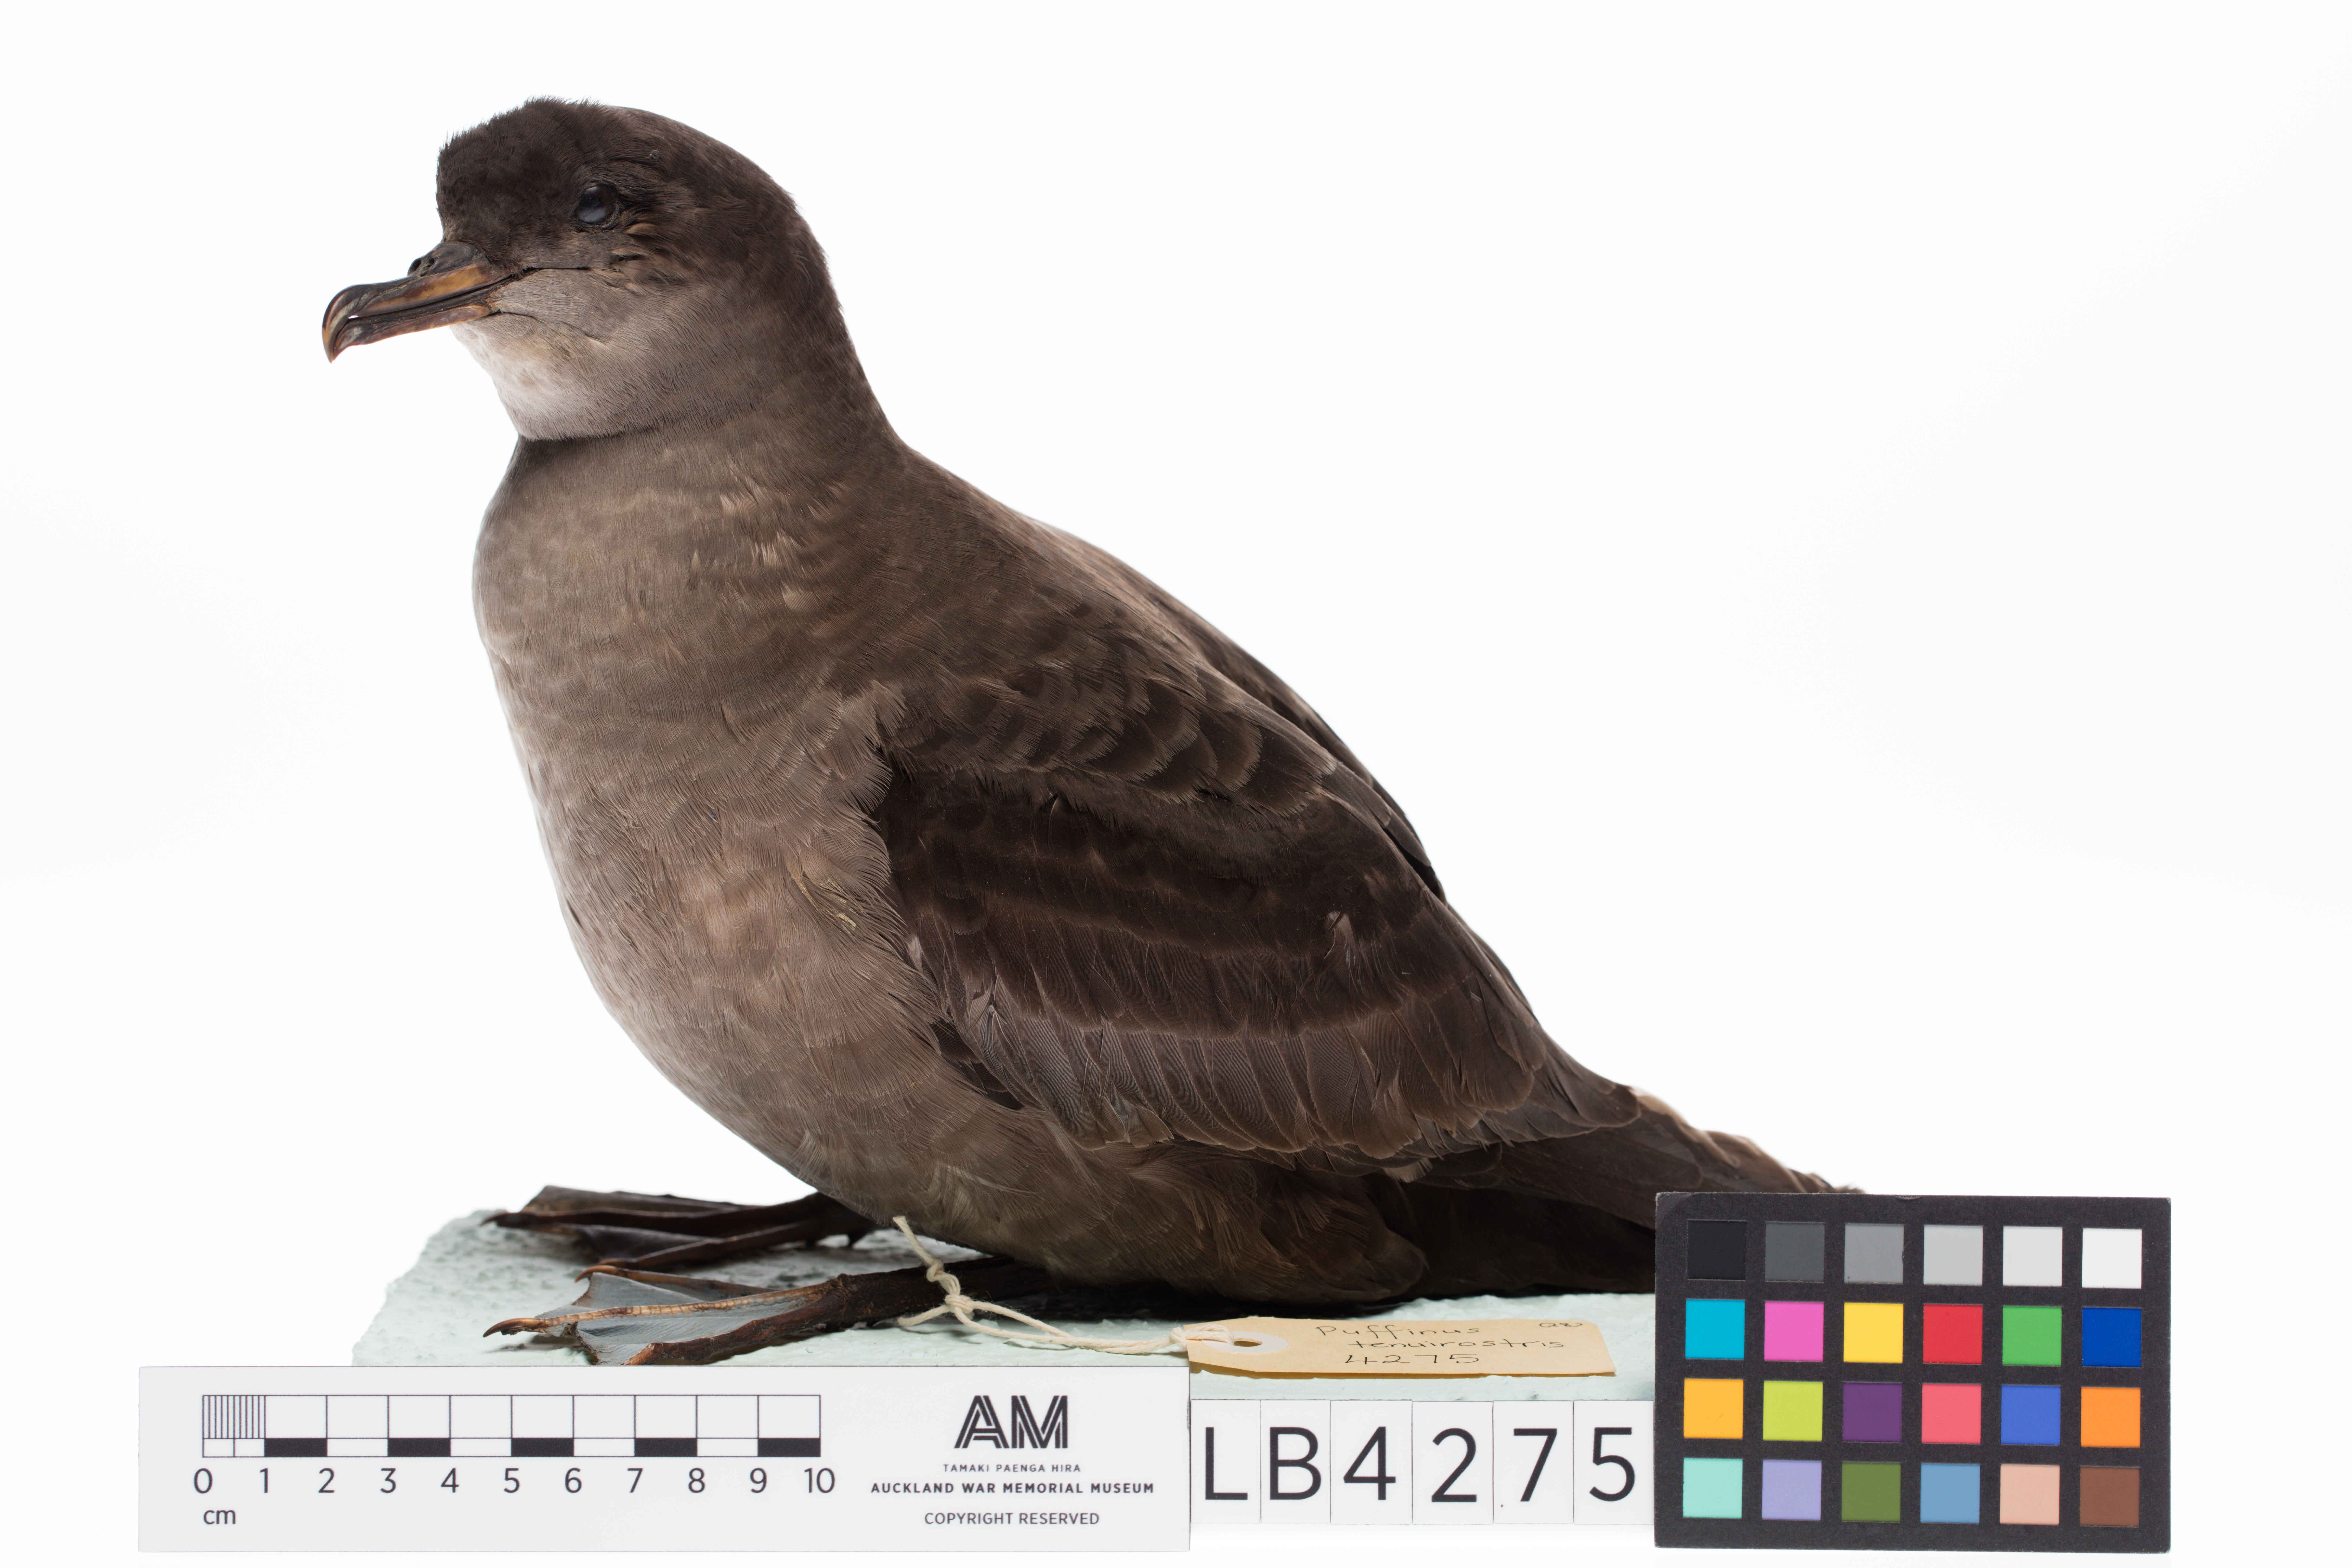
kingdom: Animalia
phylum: Chordata
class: Aves
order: Procellariiformes
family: Procellariidae
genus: Puffinus
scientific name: Puffinus tenuirostris
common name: Short-tailed shearwater
